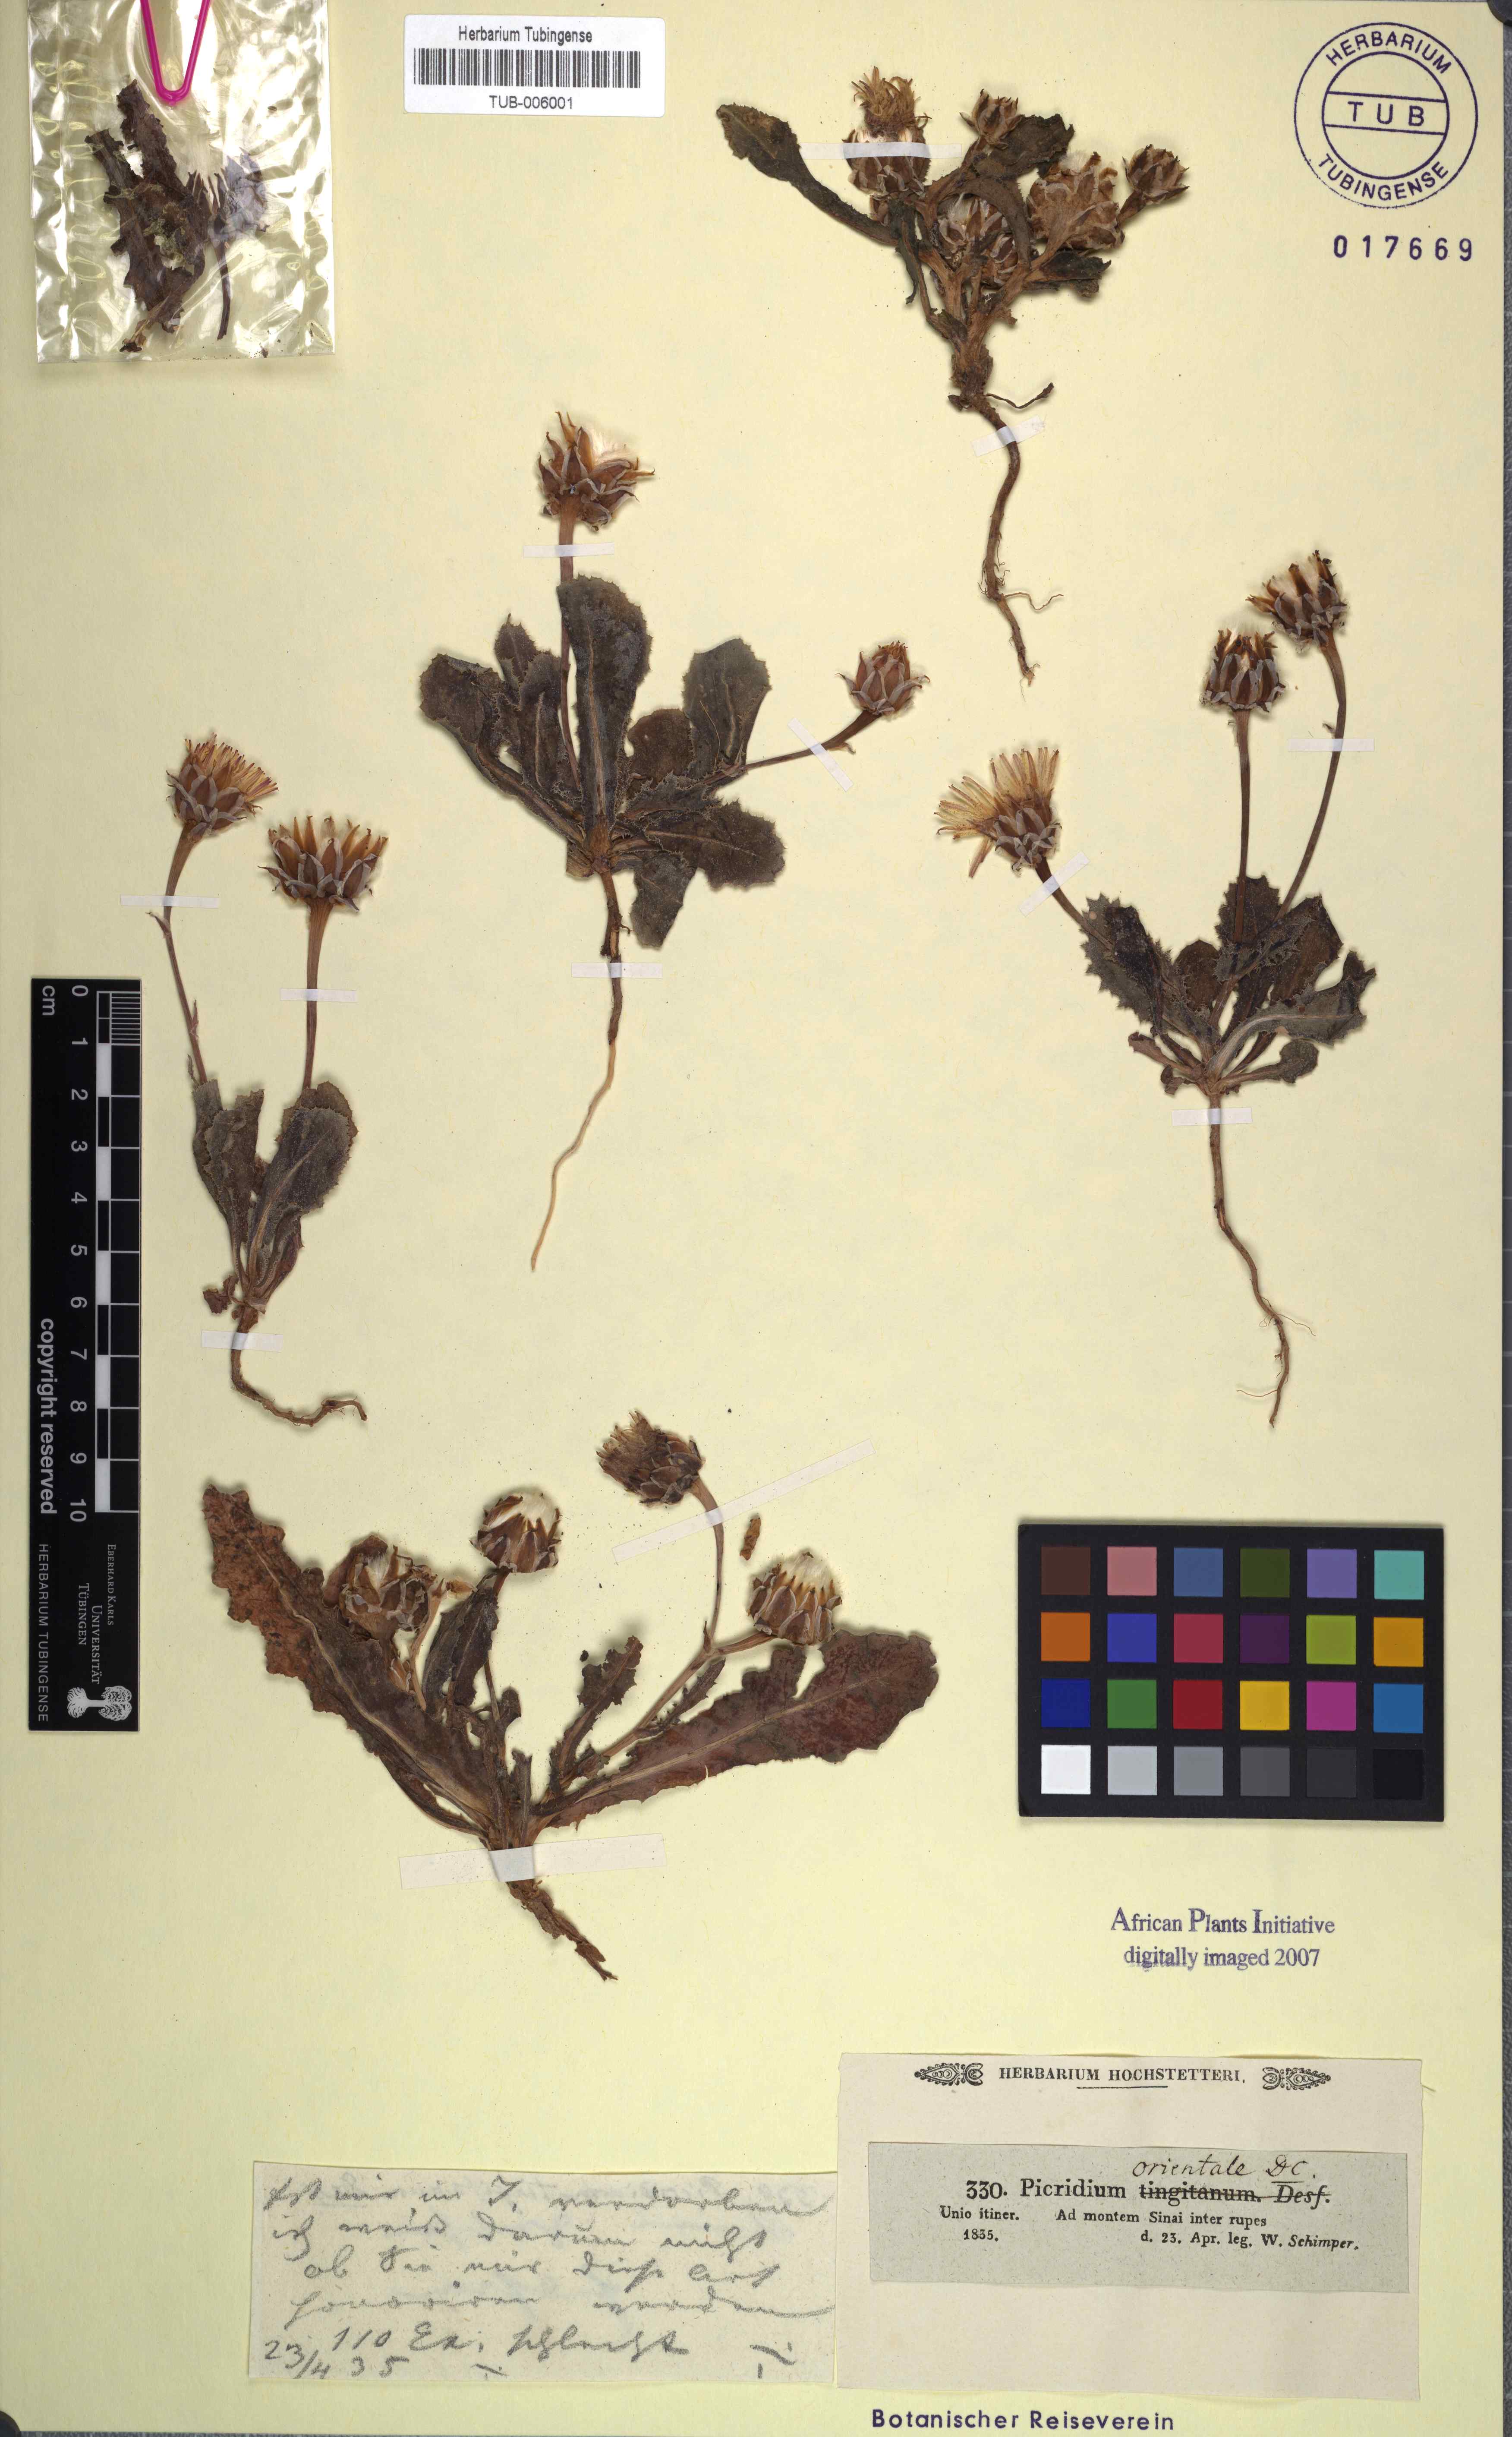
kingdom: Plantae
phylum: Tracheophyta
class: Magnoliopsida
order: Asterales
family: Asteraceae
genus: Reichardia
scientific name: Reichardia tingitana
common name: Reichardia
